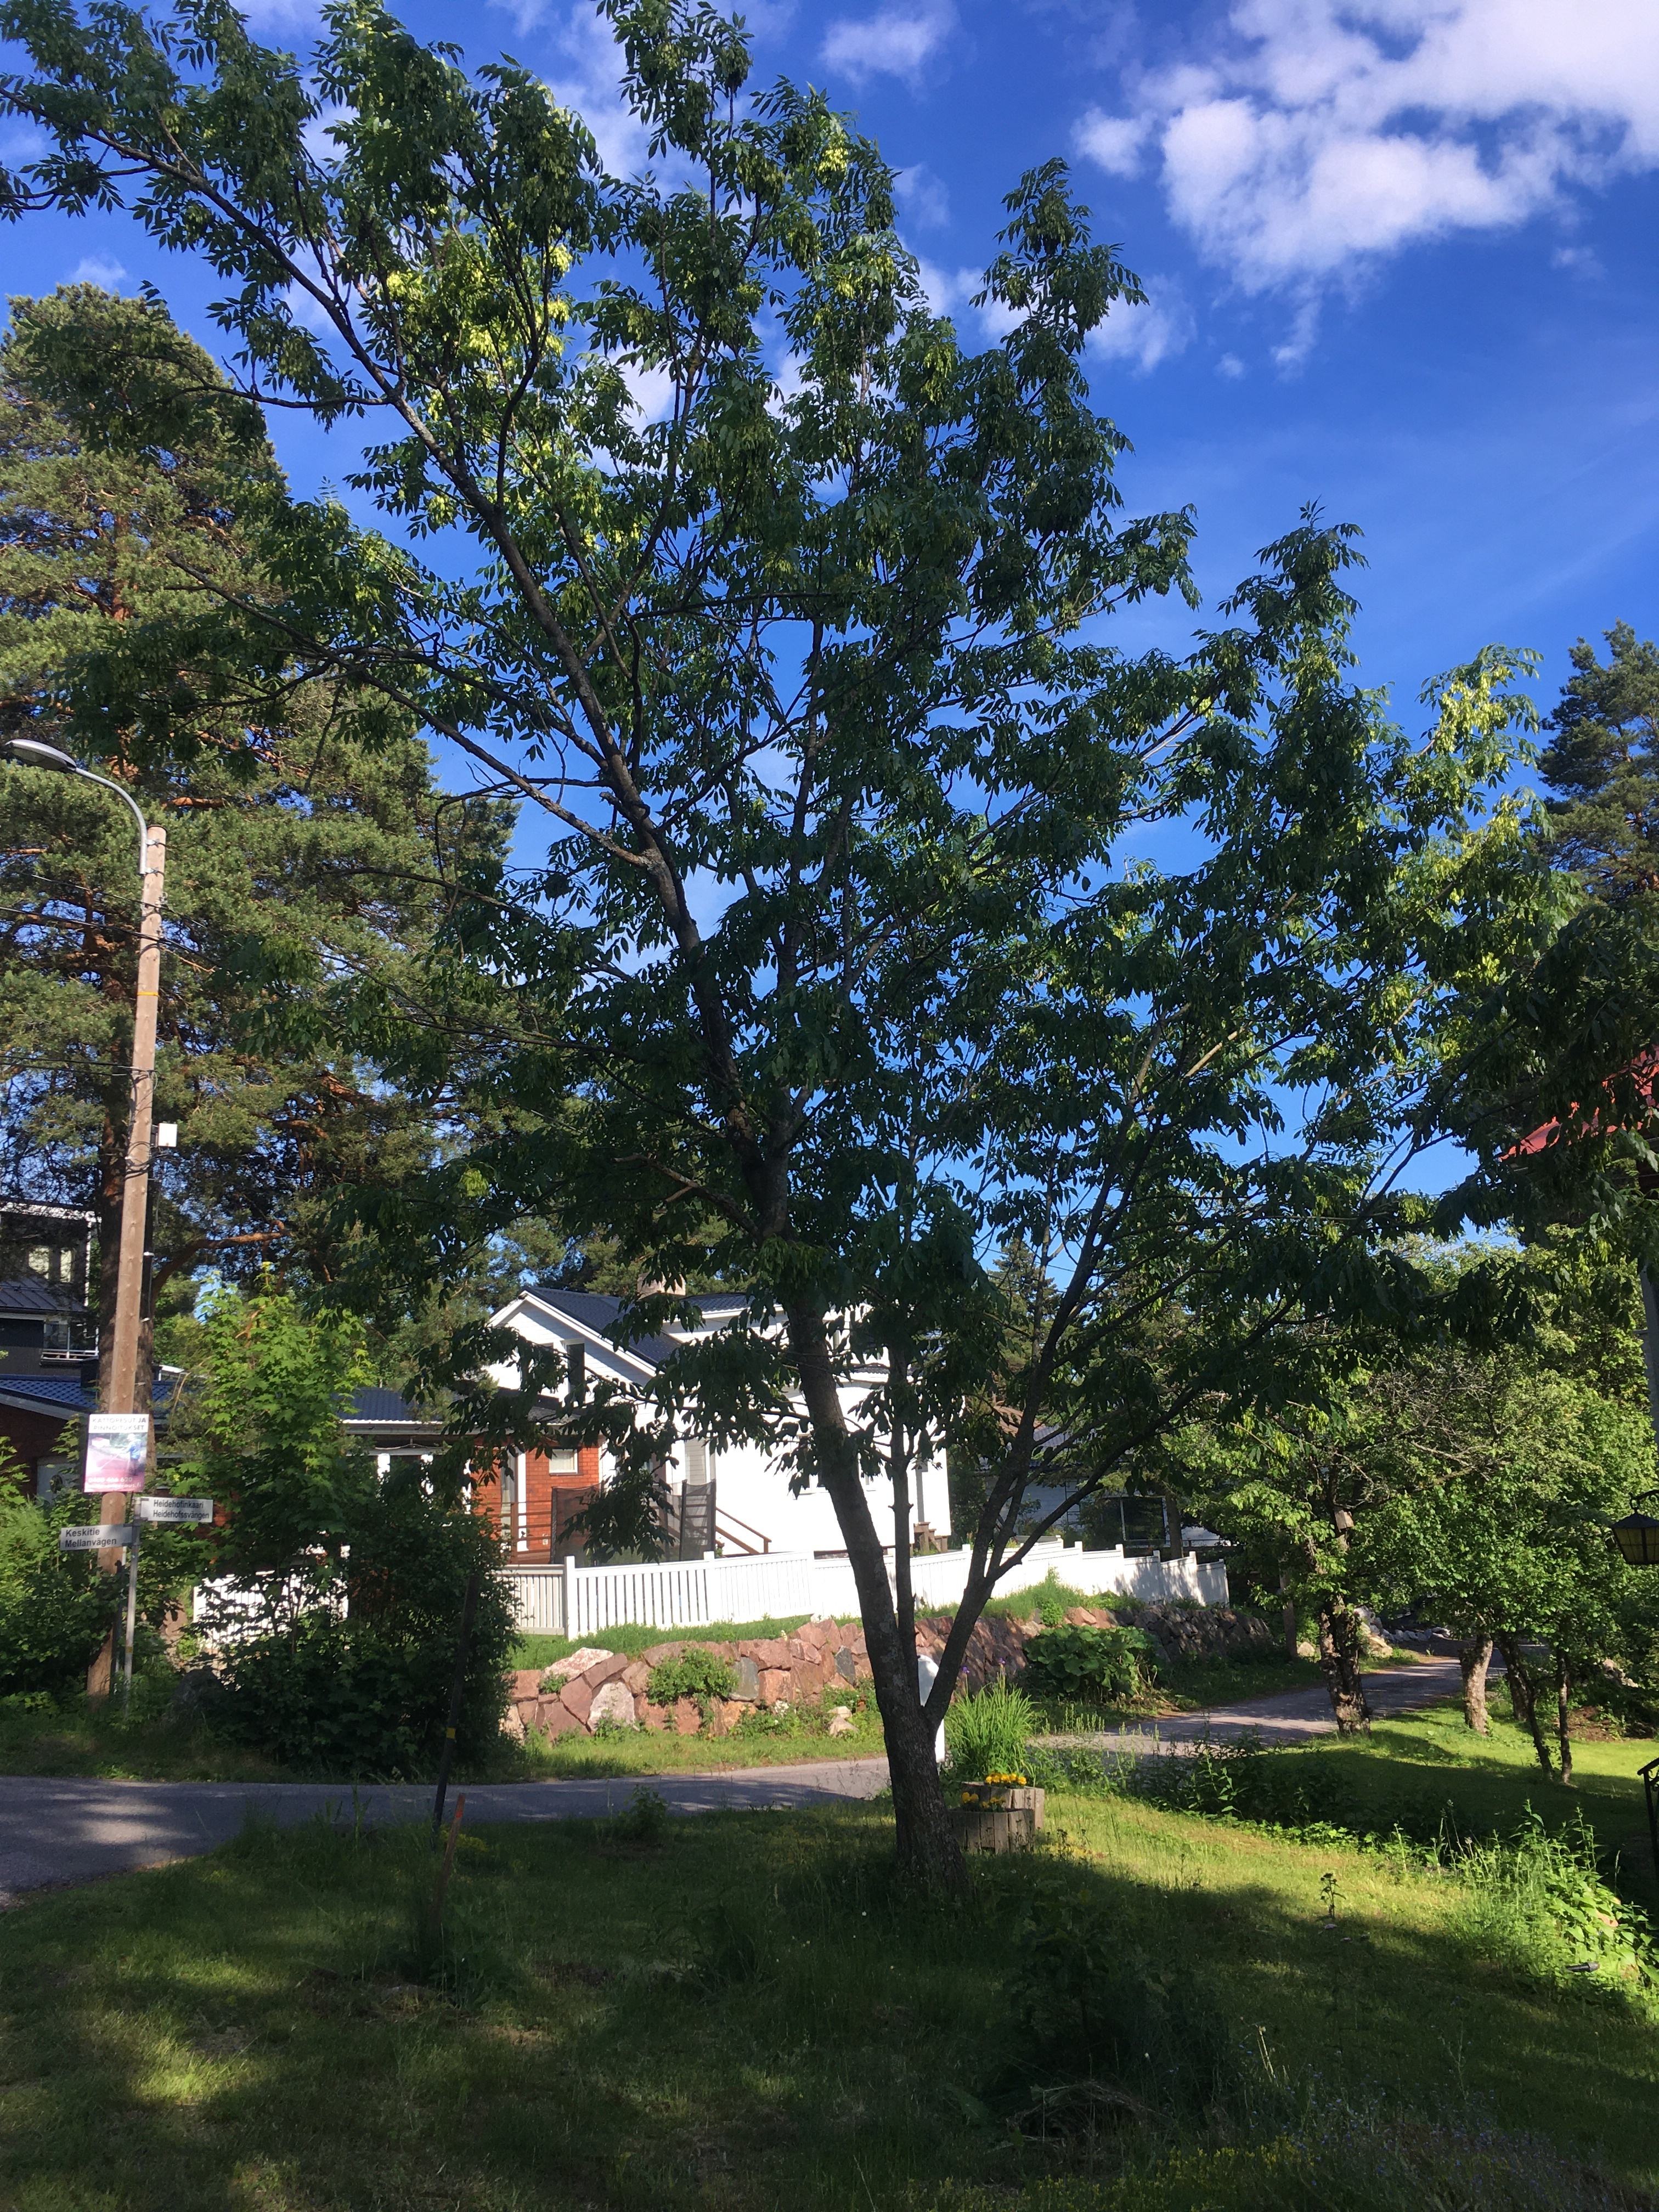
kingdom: Plantae
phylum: Tracheophyta
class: Magnoliopsida
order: Lamiales
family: Oleaceae
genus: Fraxinus
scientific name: Fraxinus excelsior
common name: European ash
